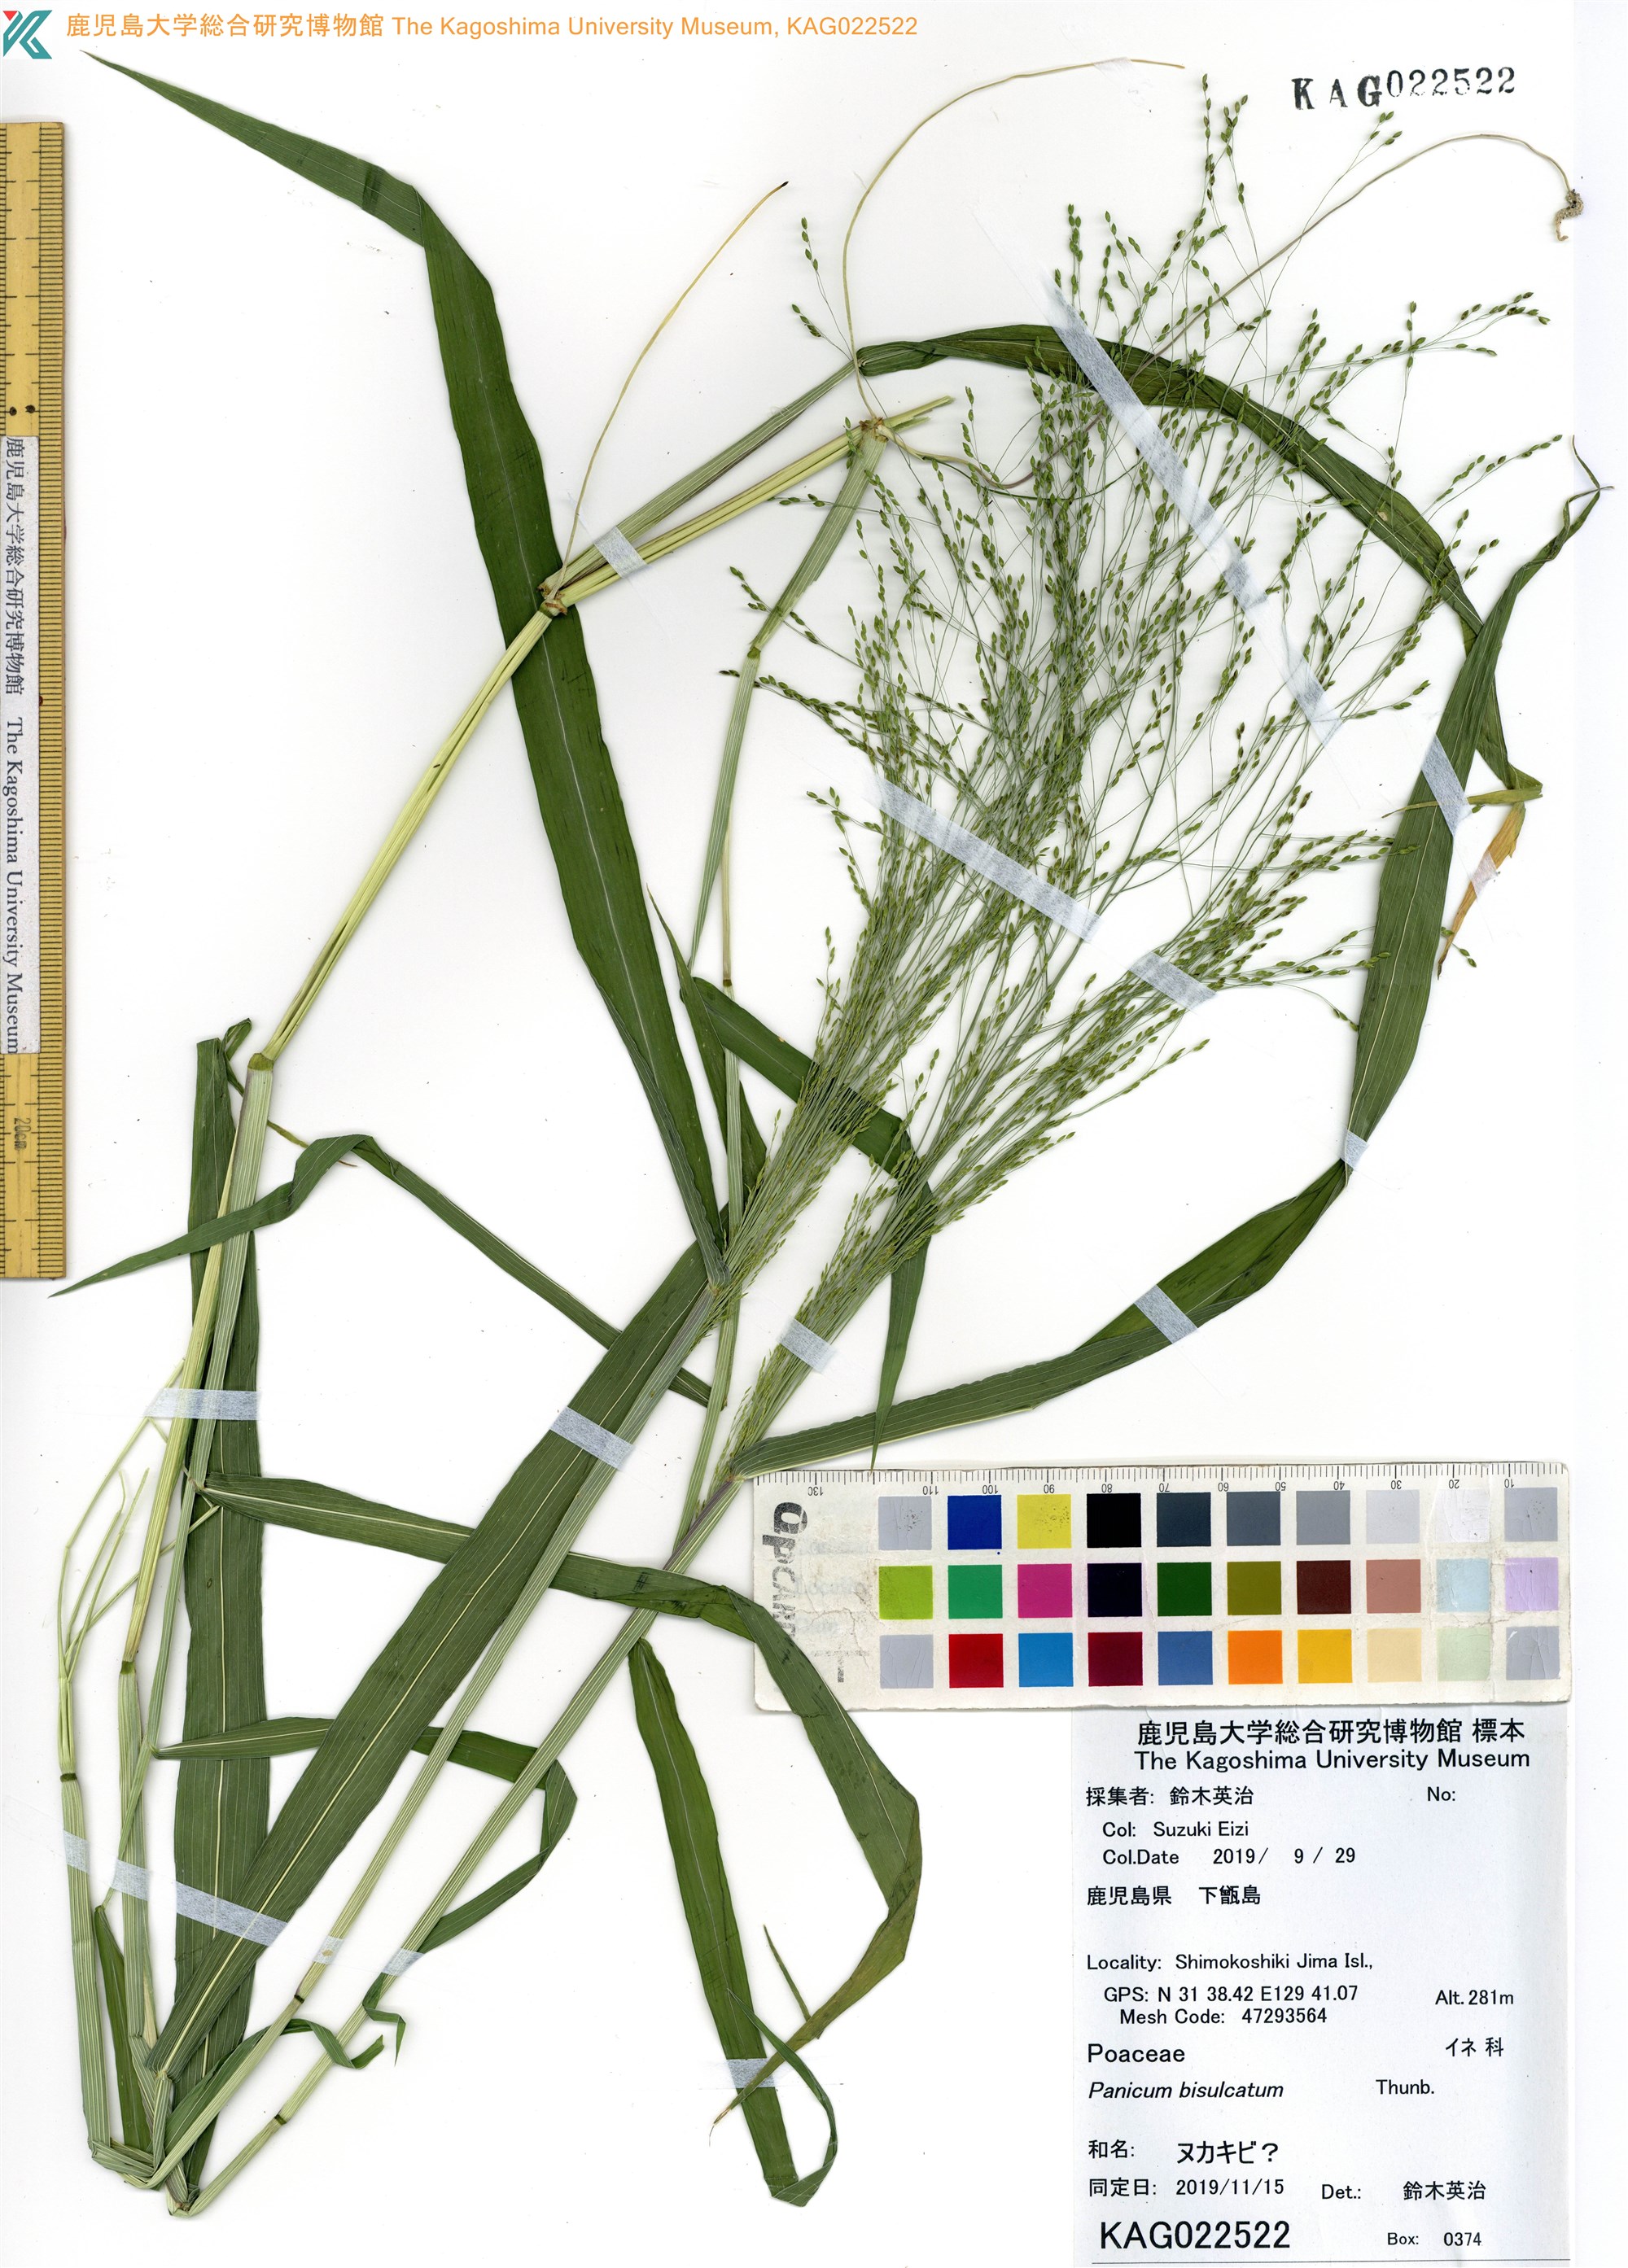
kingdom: Plantae
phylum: Tracheophyta
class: Liliopsida
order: Poales
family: Poaceae
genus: Panicum
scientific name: Panicum bisulcatum
